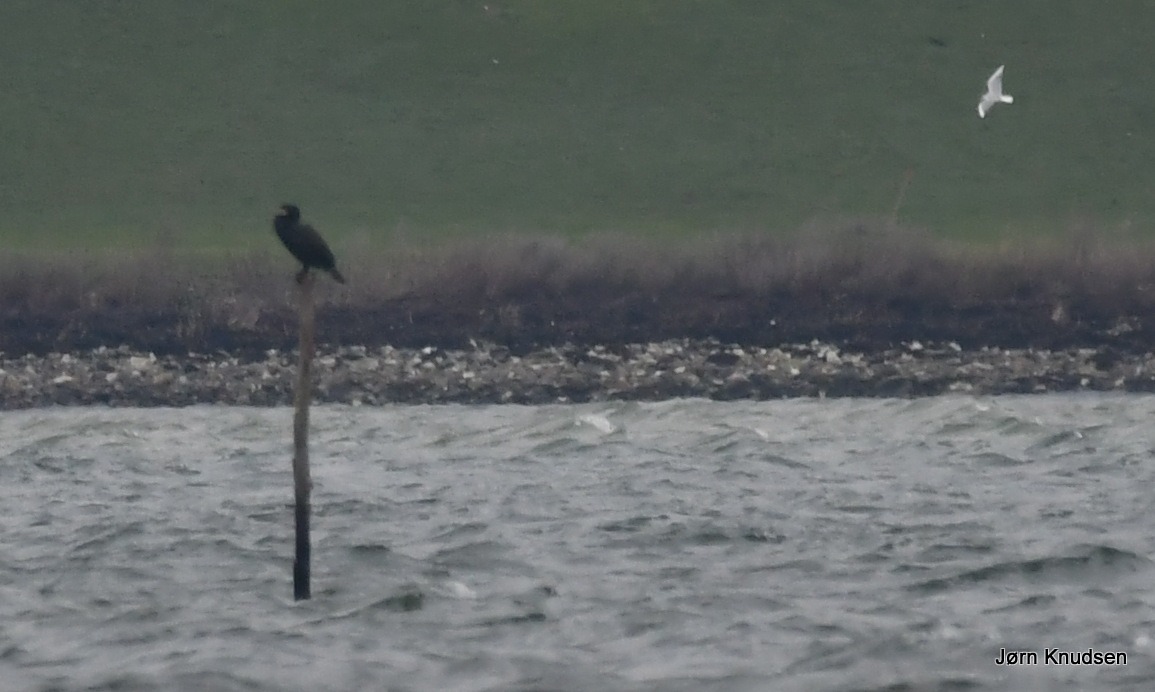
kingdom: Animalia
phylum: Chordata
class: Aves
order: Suliformes
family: Phalacrocoracidae
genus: Phalacrocorax
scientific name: Phalacrocorax carbo
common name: Skarv
